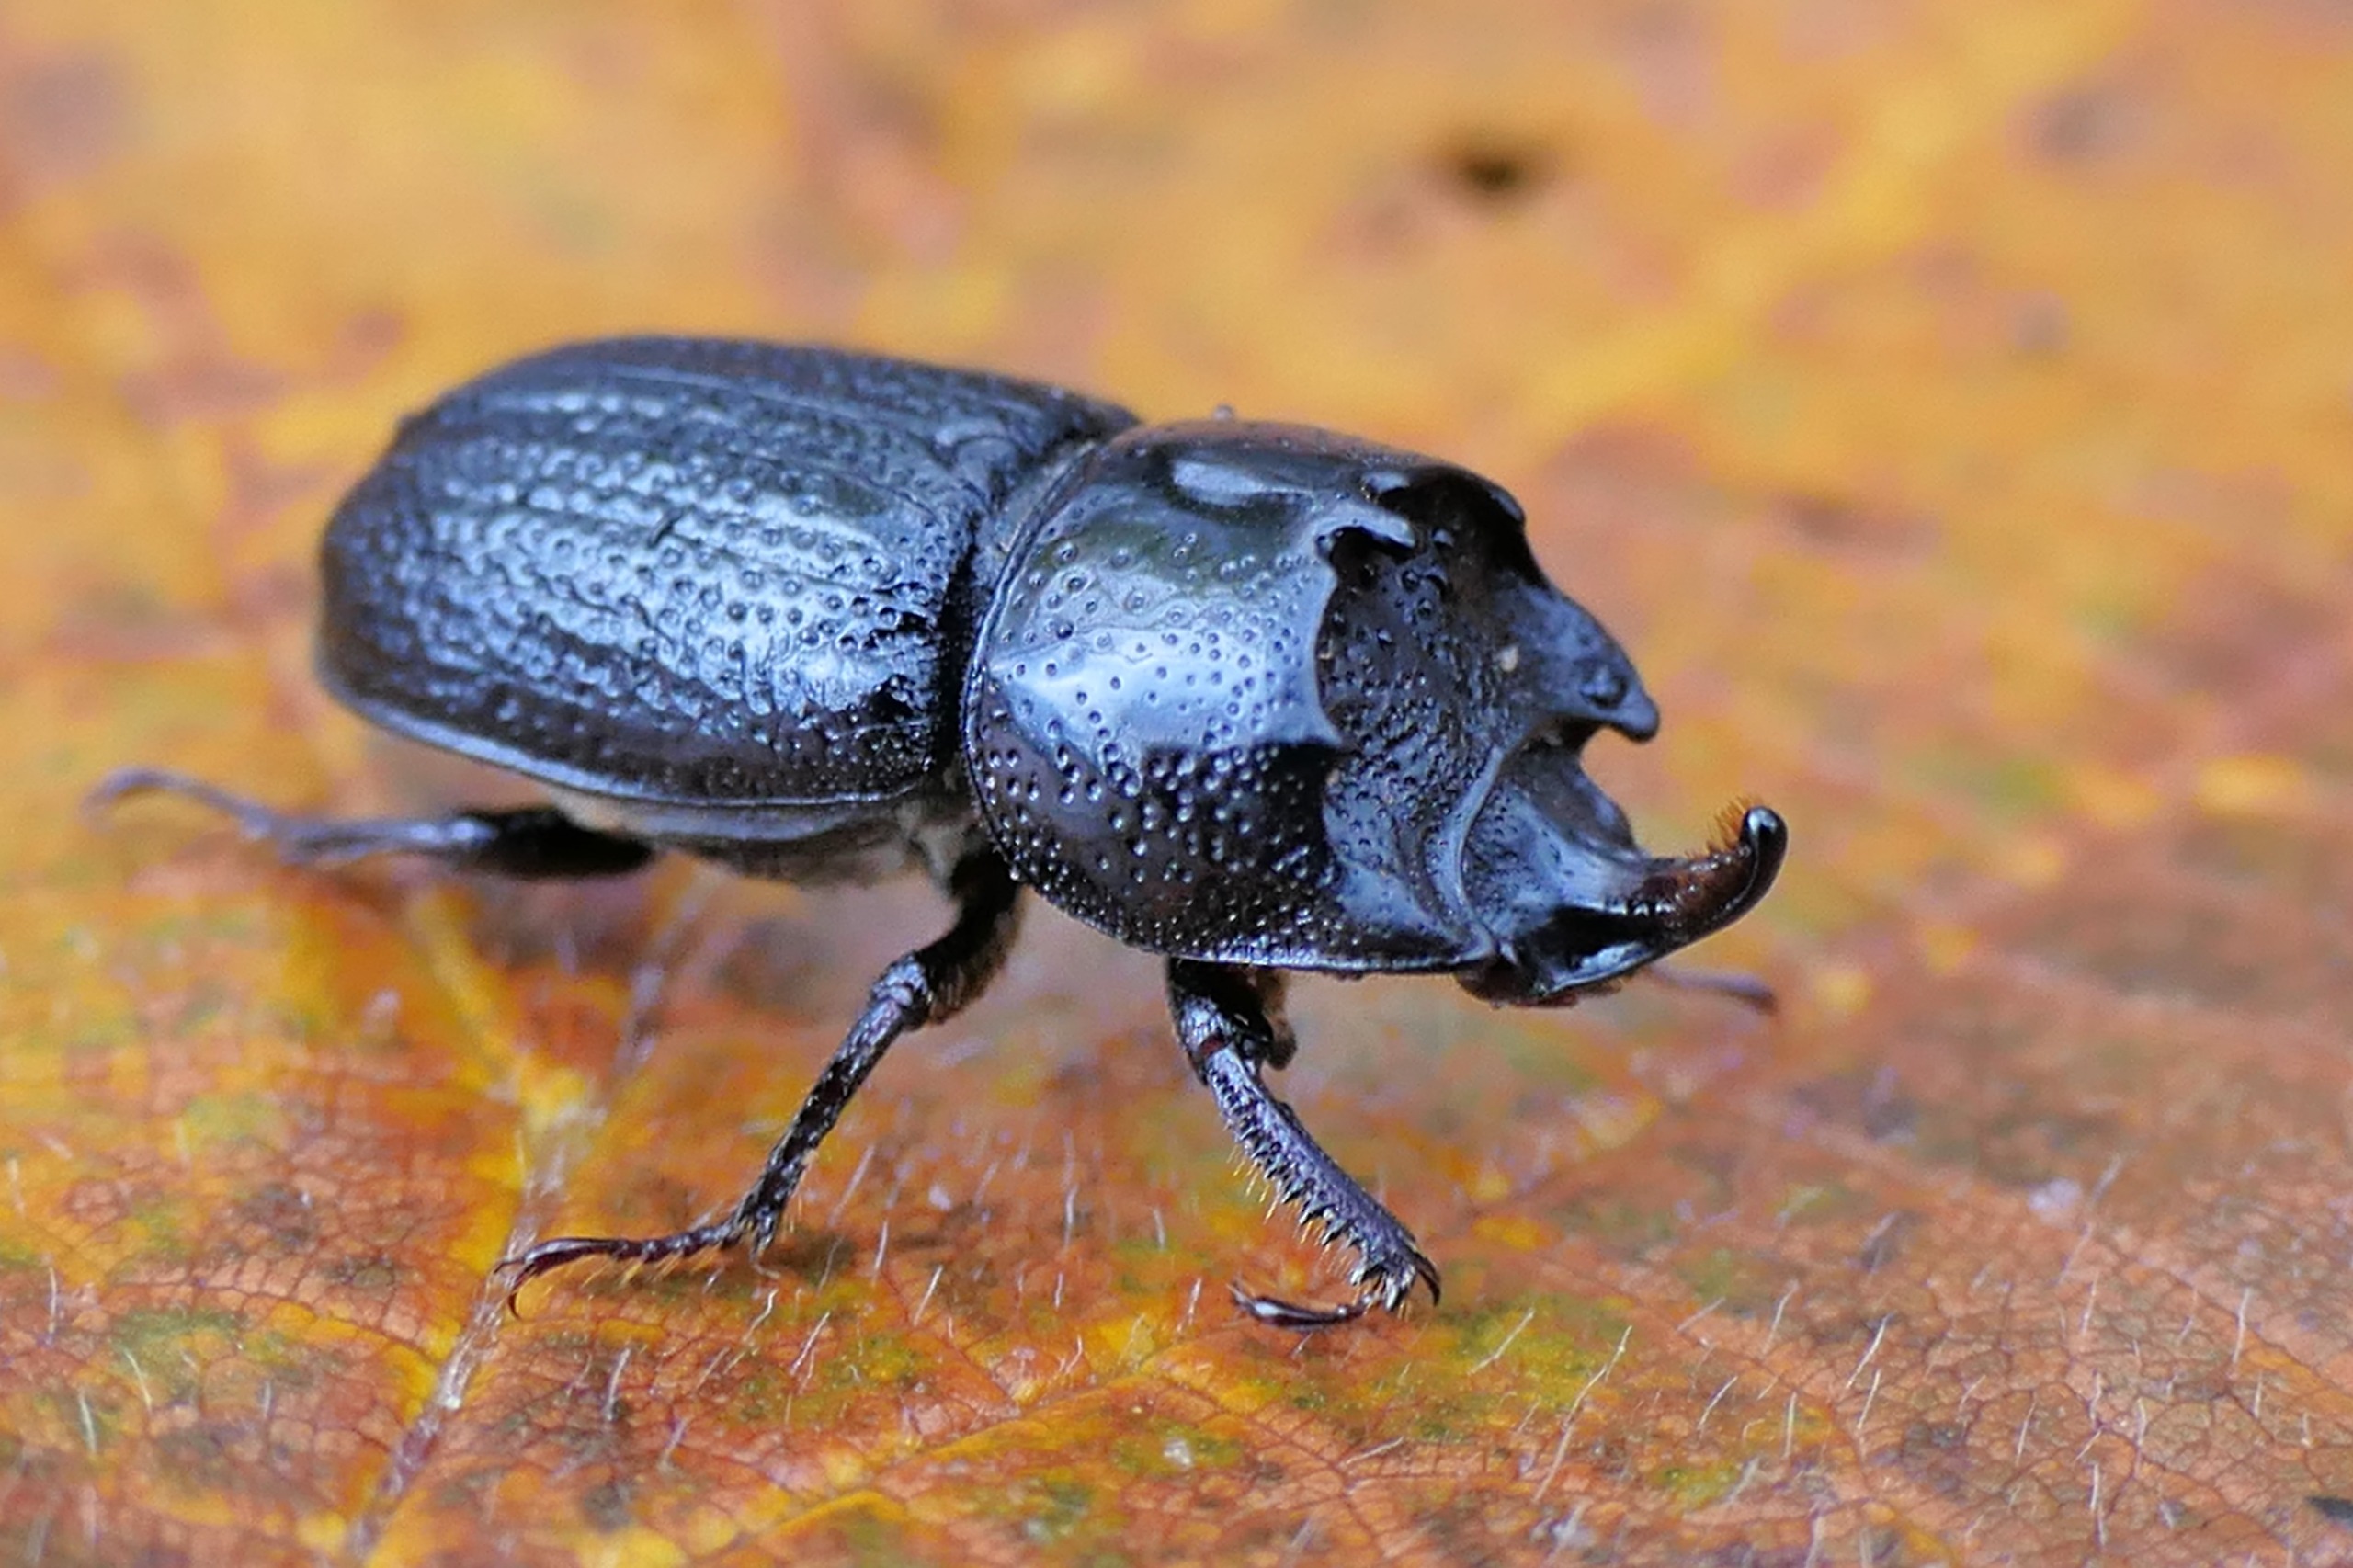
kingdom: Animalia
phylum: Arthropoda
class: Insecta
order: Coleoptera
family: Lucanidae
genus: Sinodendron
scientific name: Sinodendron cylindricum
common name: Valsehjort
